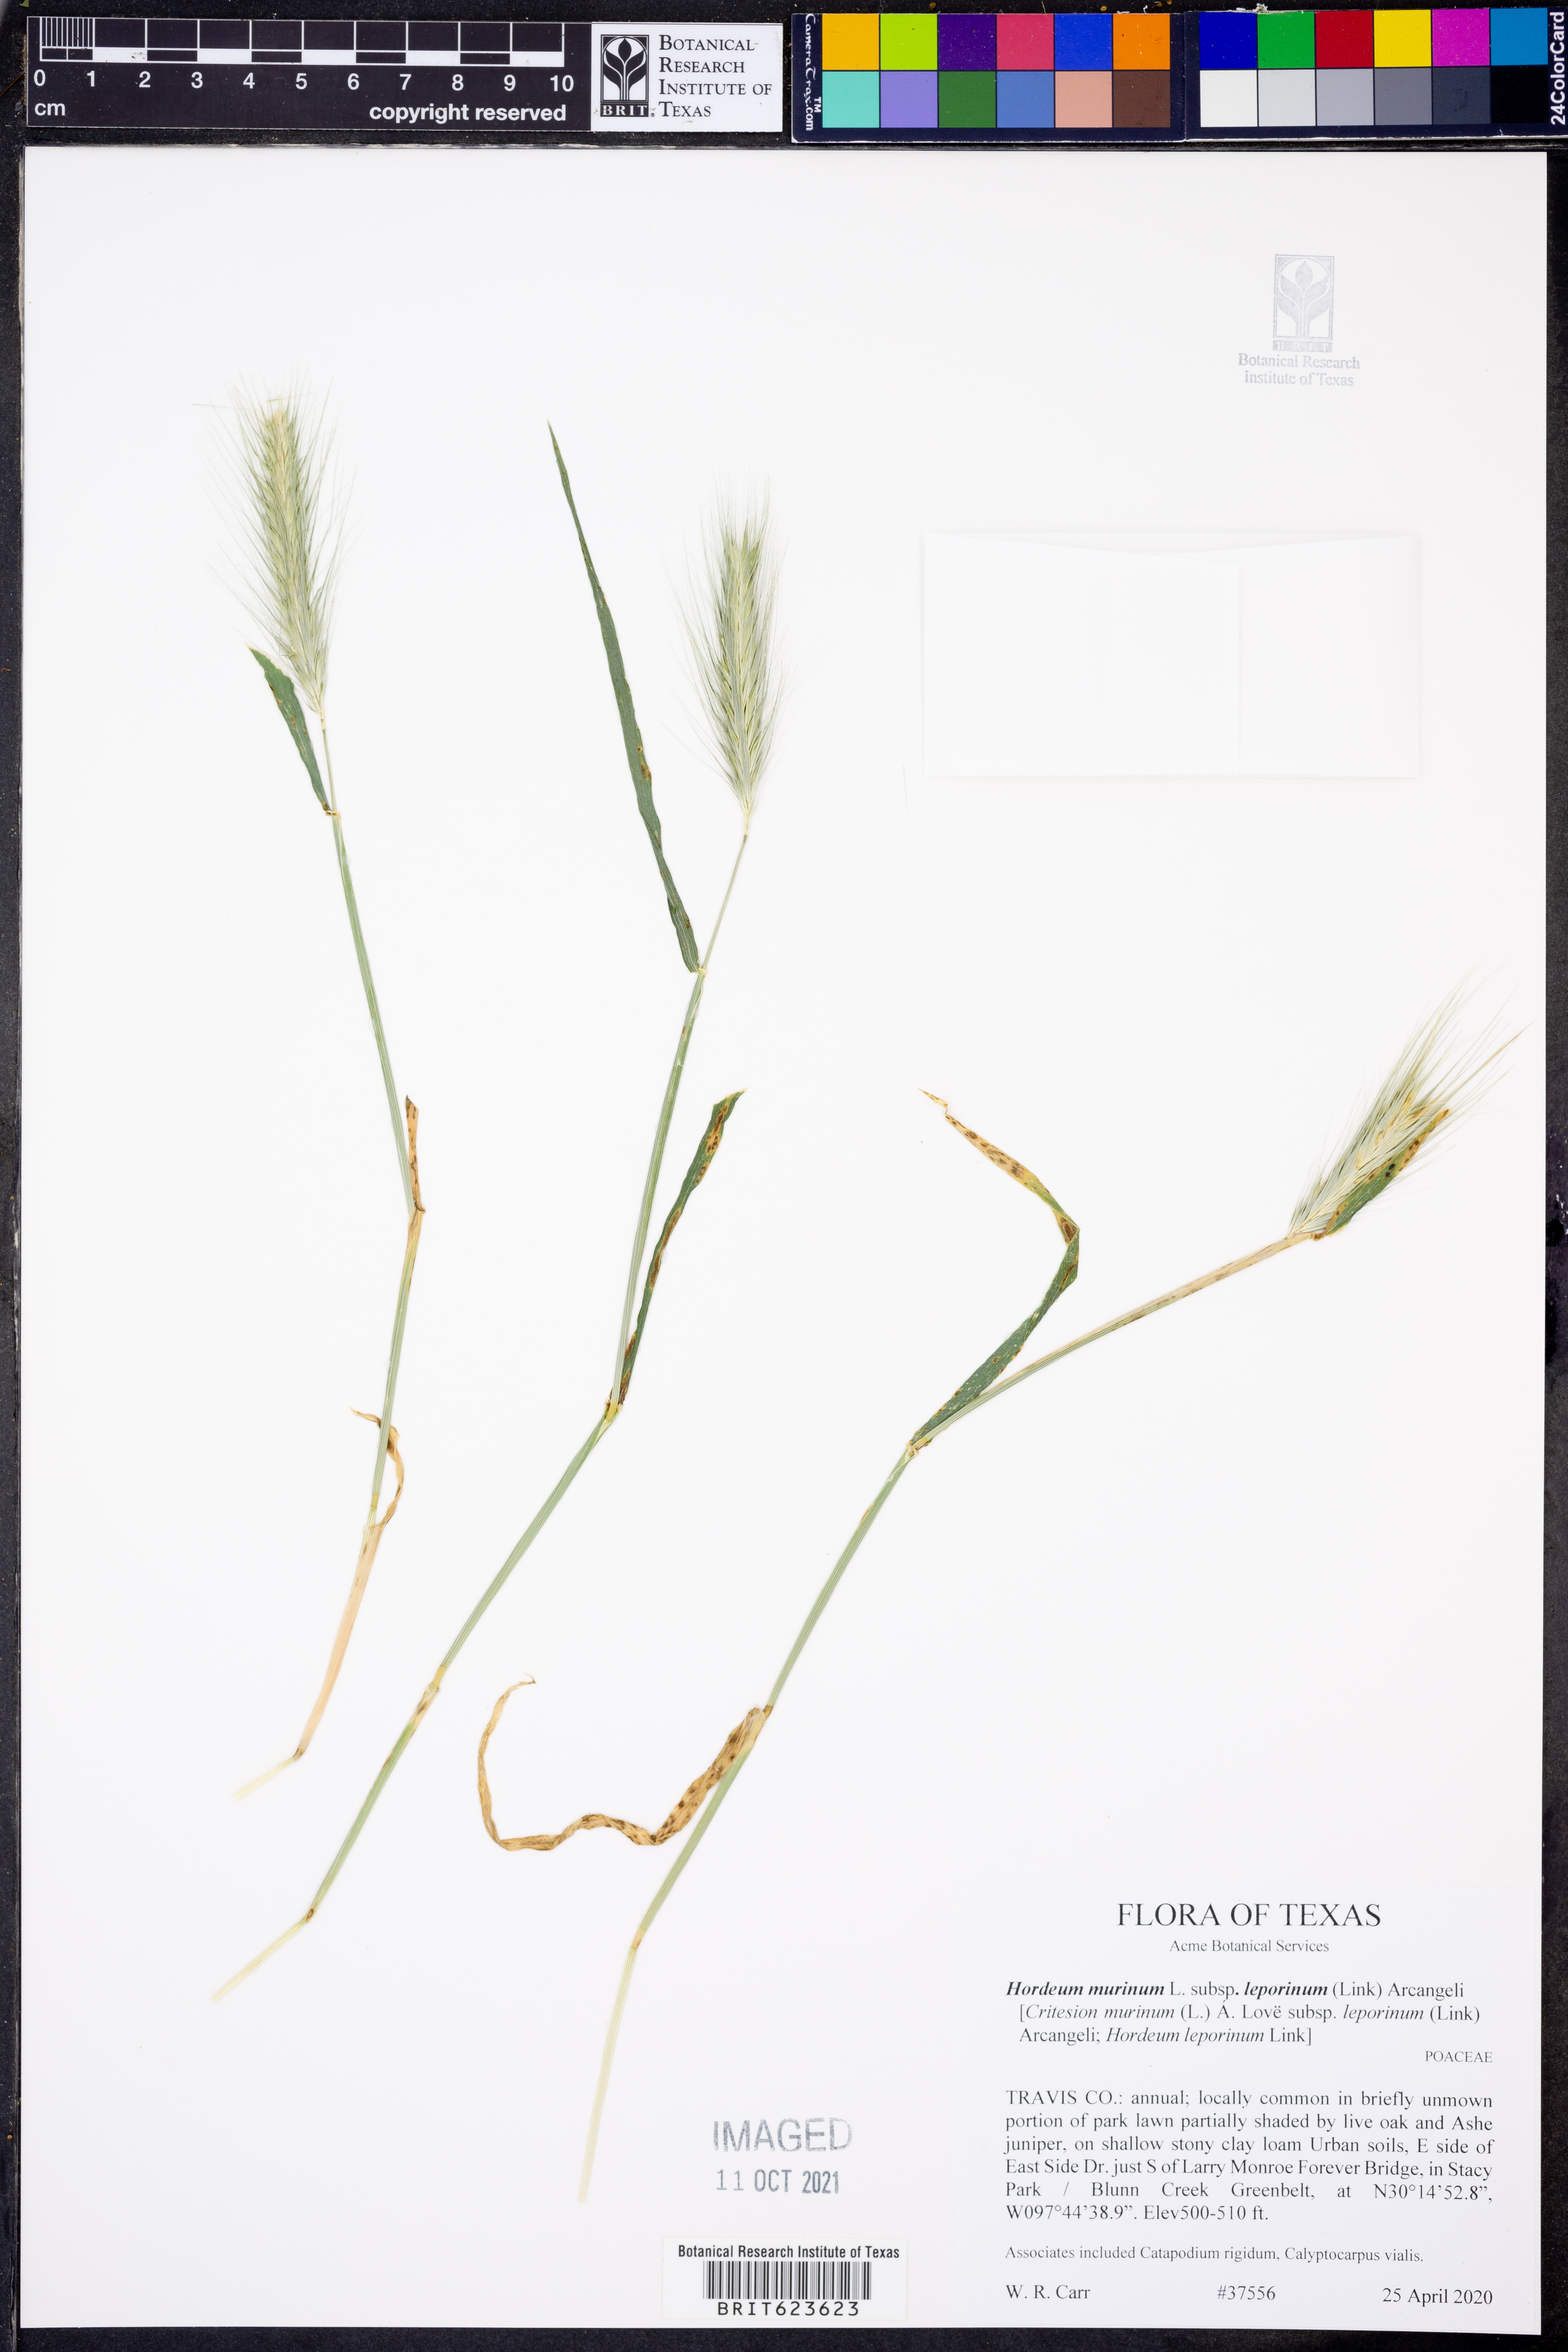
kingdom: Plantae
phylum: Tracheophyta
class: Liliopsida
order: Poales
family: Poaceae
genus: Hordeum
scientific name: Hordeum murinum
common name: Wall barley
